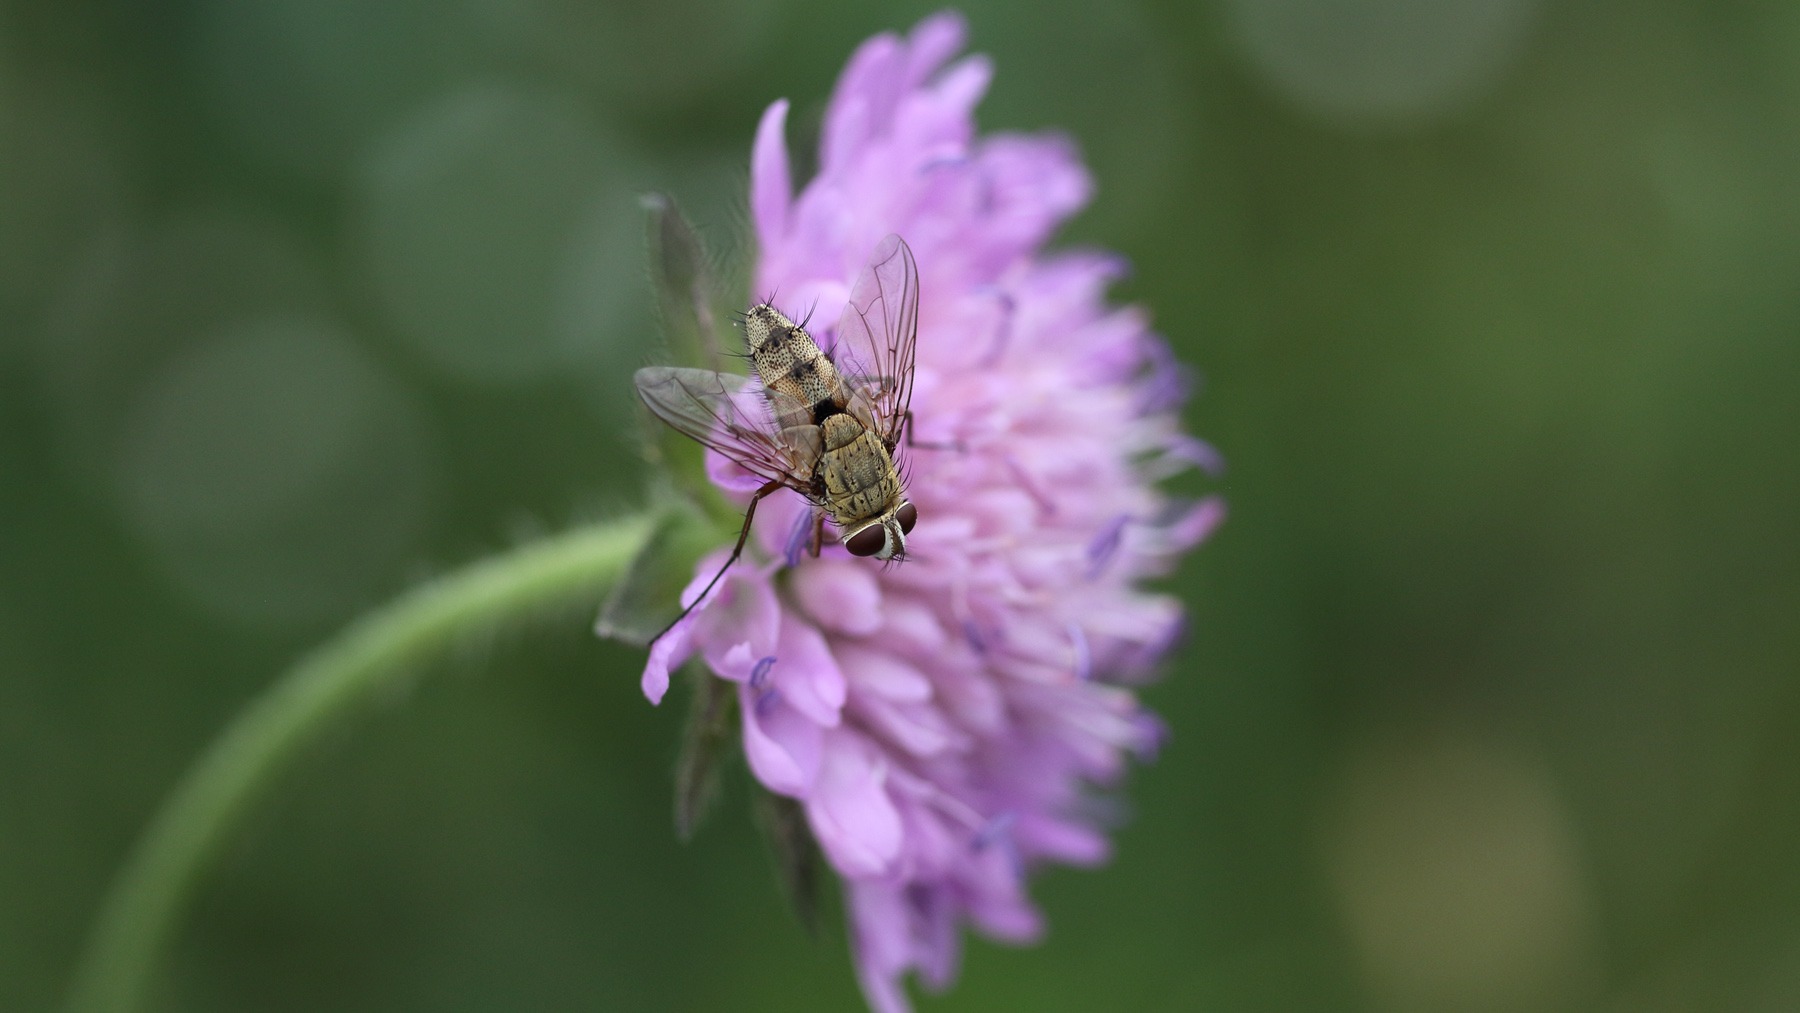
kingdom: Animalia
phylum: Arthropoda
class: Insecta
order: Diptera
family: Tachinidae
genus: Prosena
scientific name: Prosena siberita
